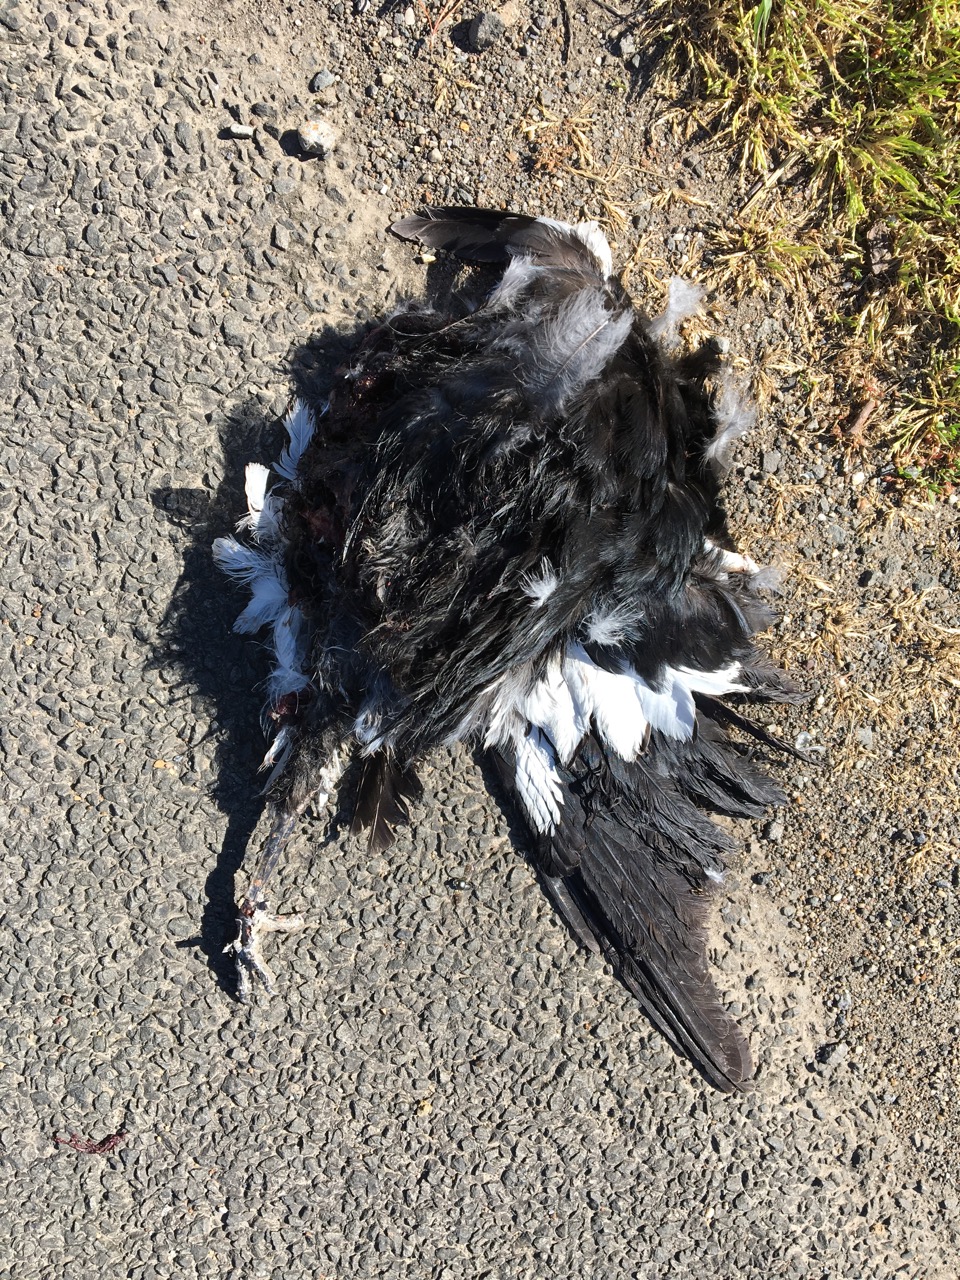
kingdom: Animalia
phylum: Chordata
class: Aves
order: Passeriformes
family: Cracticidae
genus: Gymnorhina
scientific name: Gymnorhina tibicen
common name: Australian magpie
